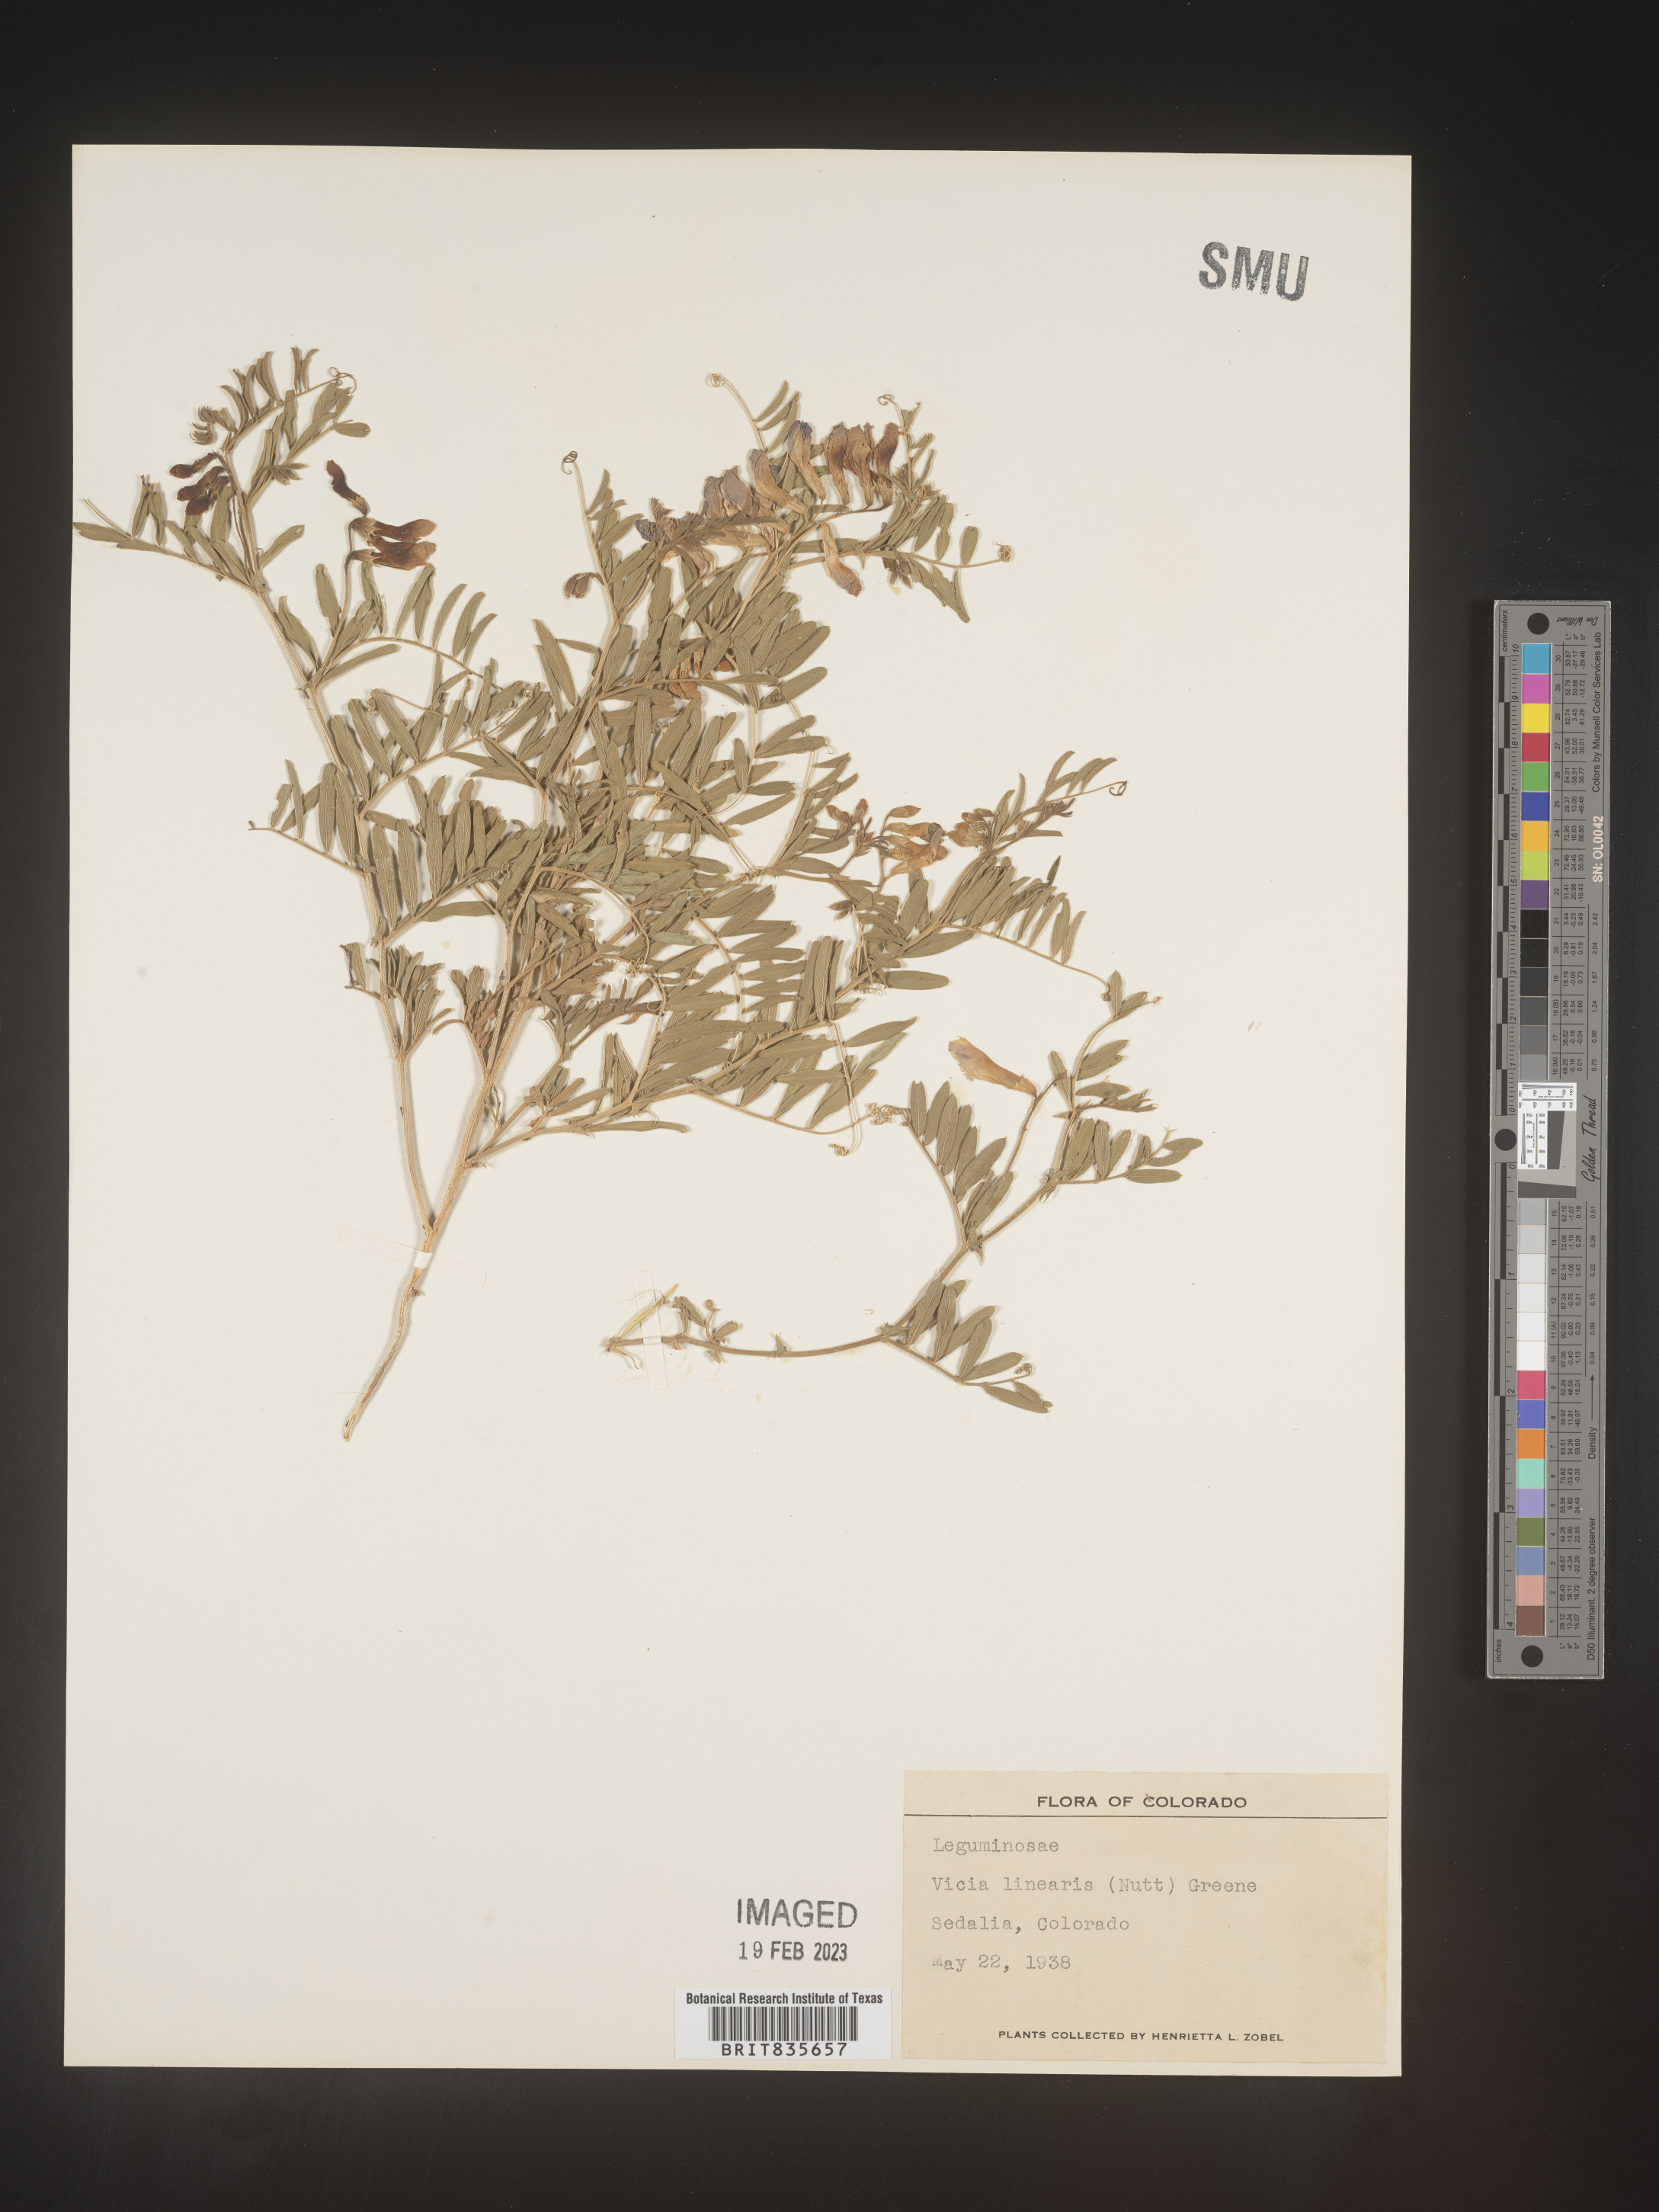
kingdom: Plantae
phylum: Tracheophyta
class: Magnoliopsida
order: Fabales
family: Fabaceae
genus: Vicia
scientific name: Vicia americana
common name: American vetch
